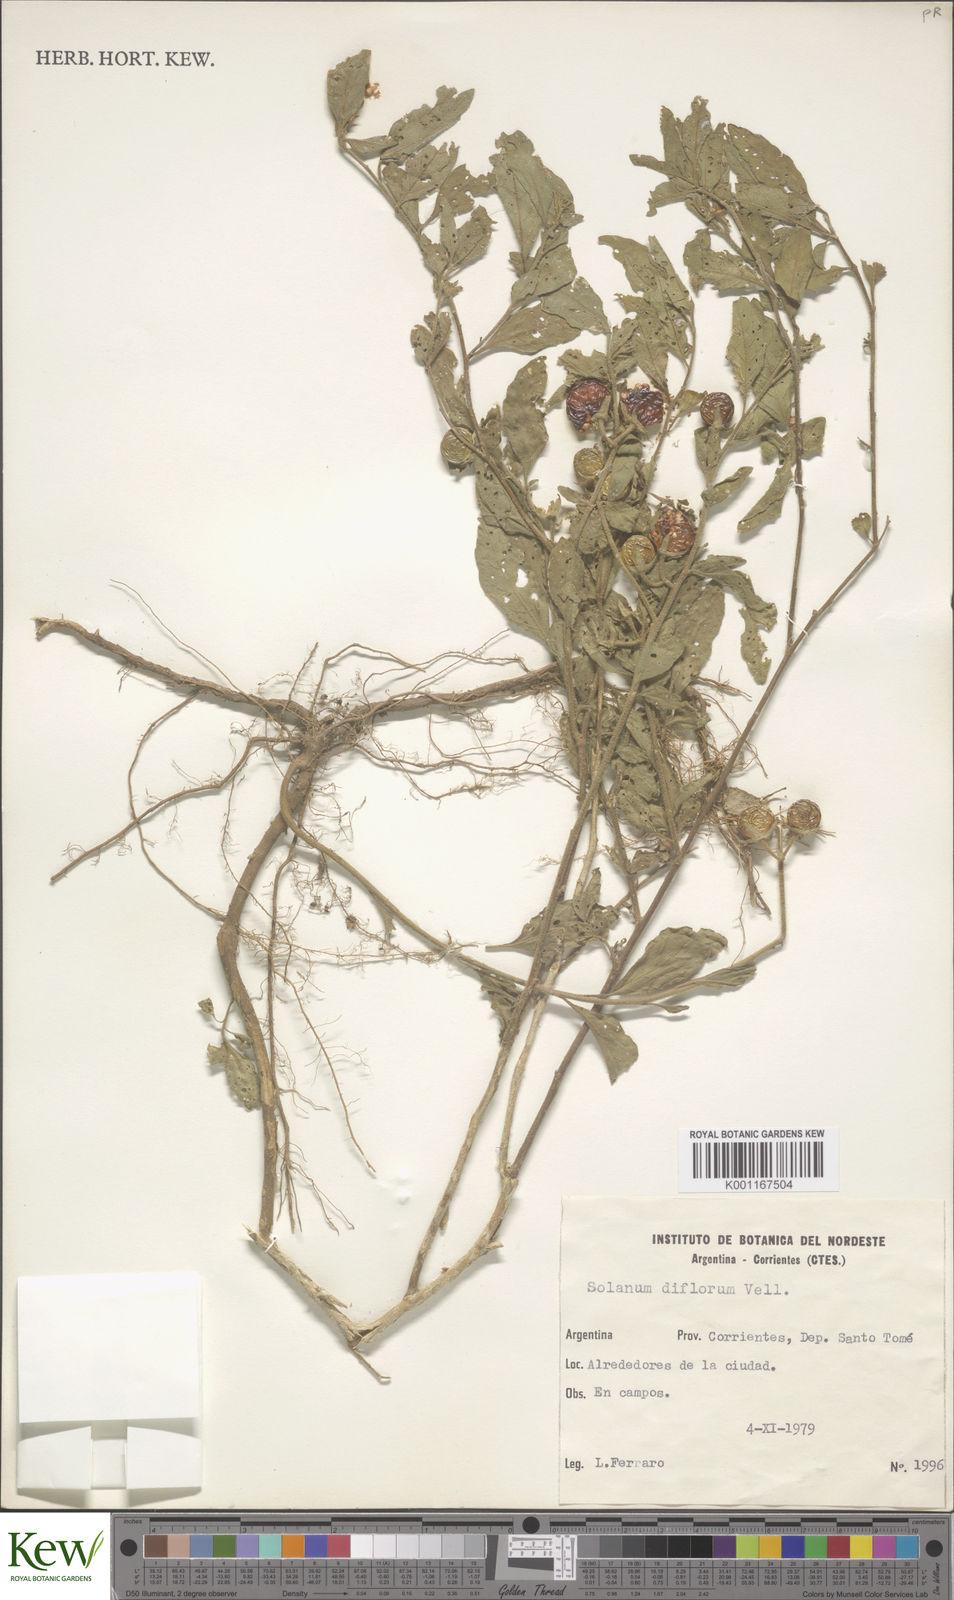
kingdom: Plantae
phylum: Tracheophyta
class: Magnoliopsida
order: Solanales
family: Solanaceae
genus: Solanum
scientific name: Solanum pseudocapsicum
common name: Jerusalem cherry
